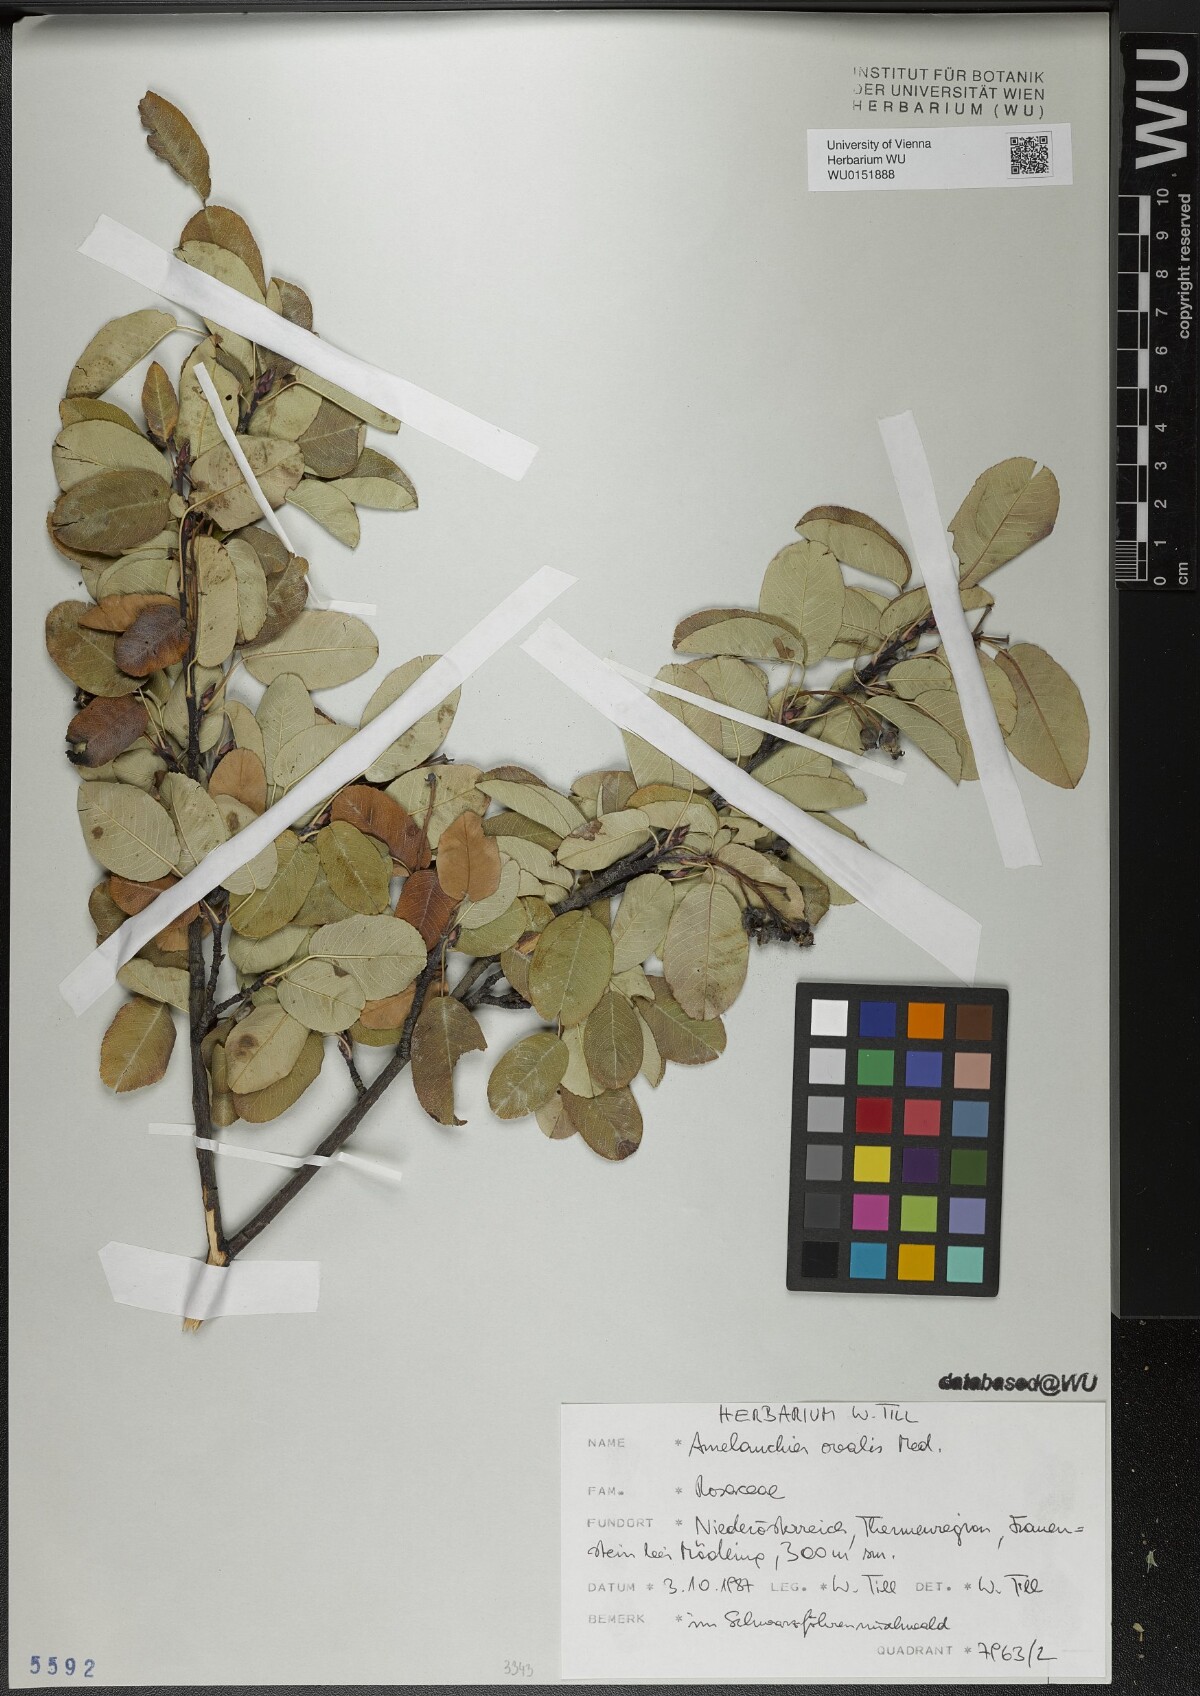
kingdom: Plantae
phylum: Tracheophyta
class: Magnoliopsida
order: Rosales
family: Rosaceae
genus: Amelanchier
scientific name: Amelanchier ovalis
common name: Serviceberry
